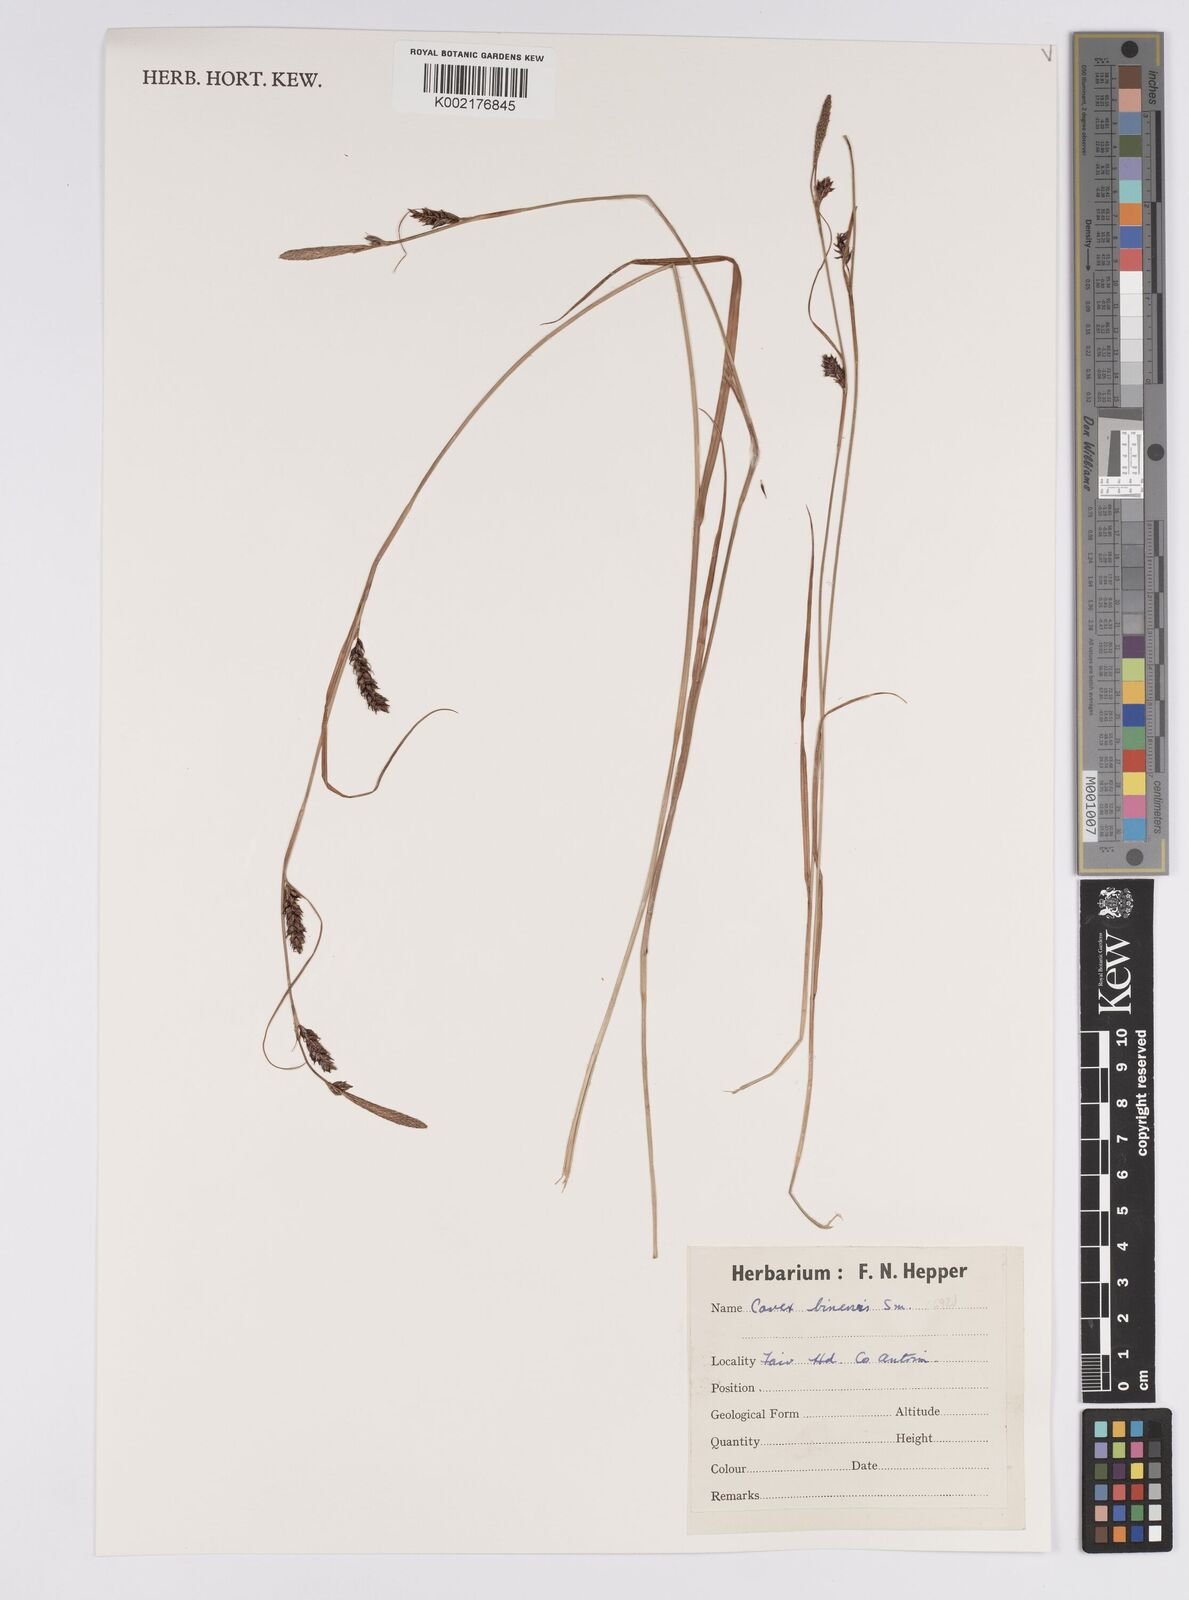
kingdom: Plantae
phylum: Tracheophyta
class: Liliopsida
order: Poales
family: Cyperaceae
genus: Carex
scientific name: Carex binervis
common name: Green-ribbed sedge
